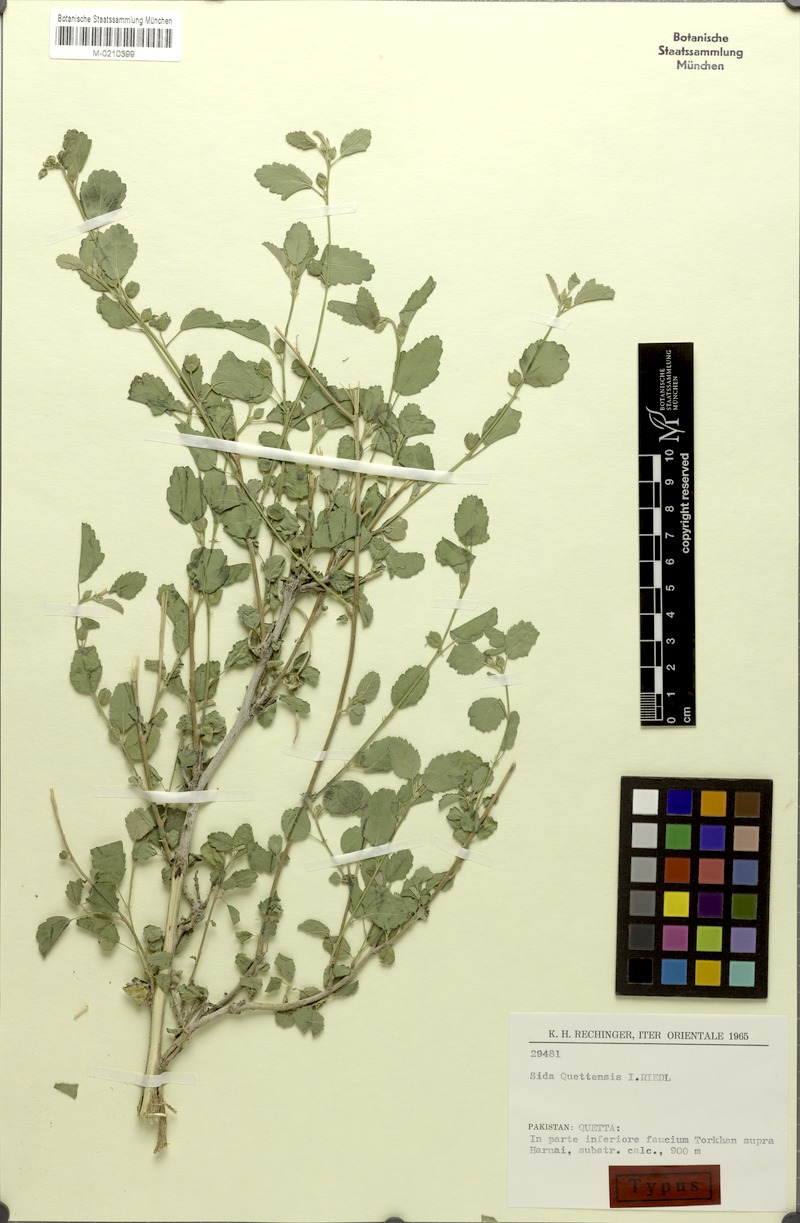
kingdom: Plantae
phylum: Tracheophyta
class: Magnoliopsida
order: Malvales
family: Malvaceae
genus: Sida
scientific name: Sida quettensis
